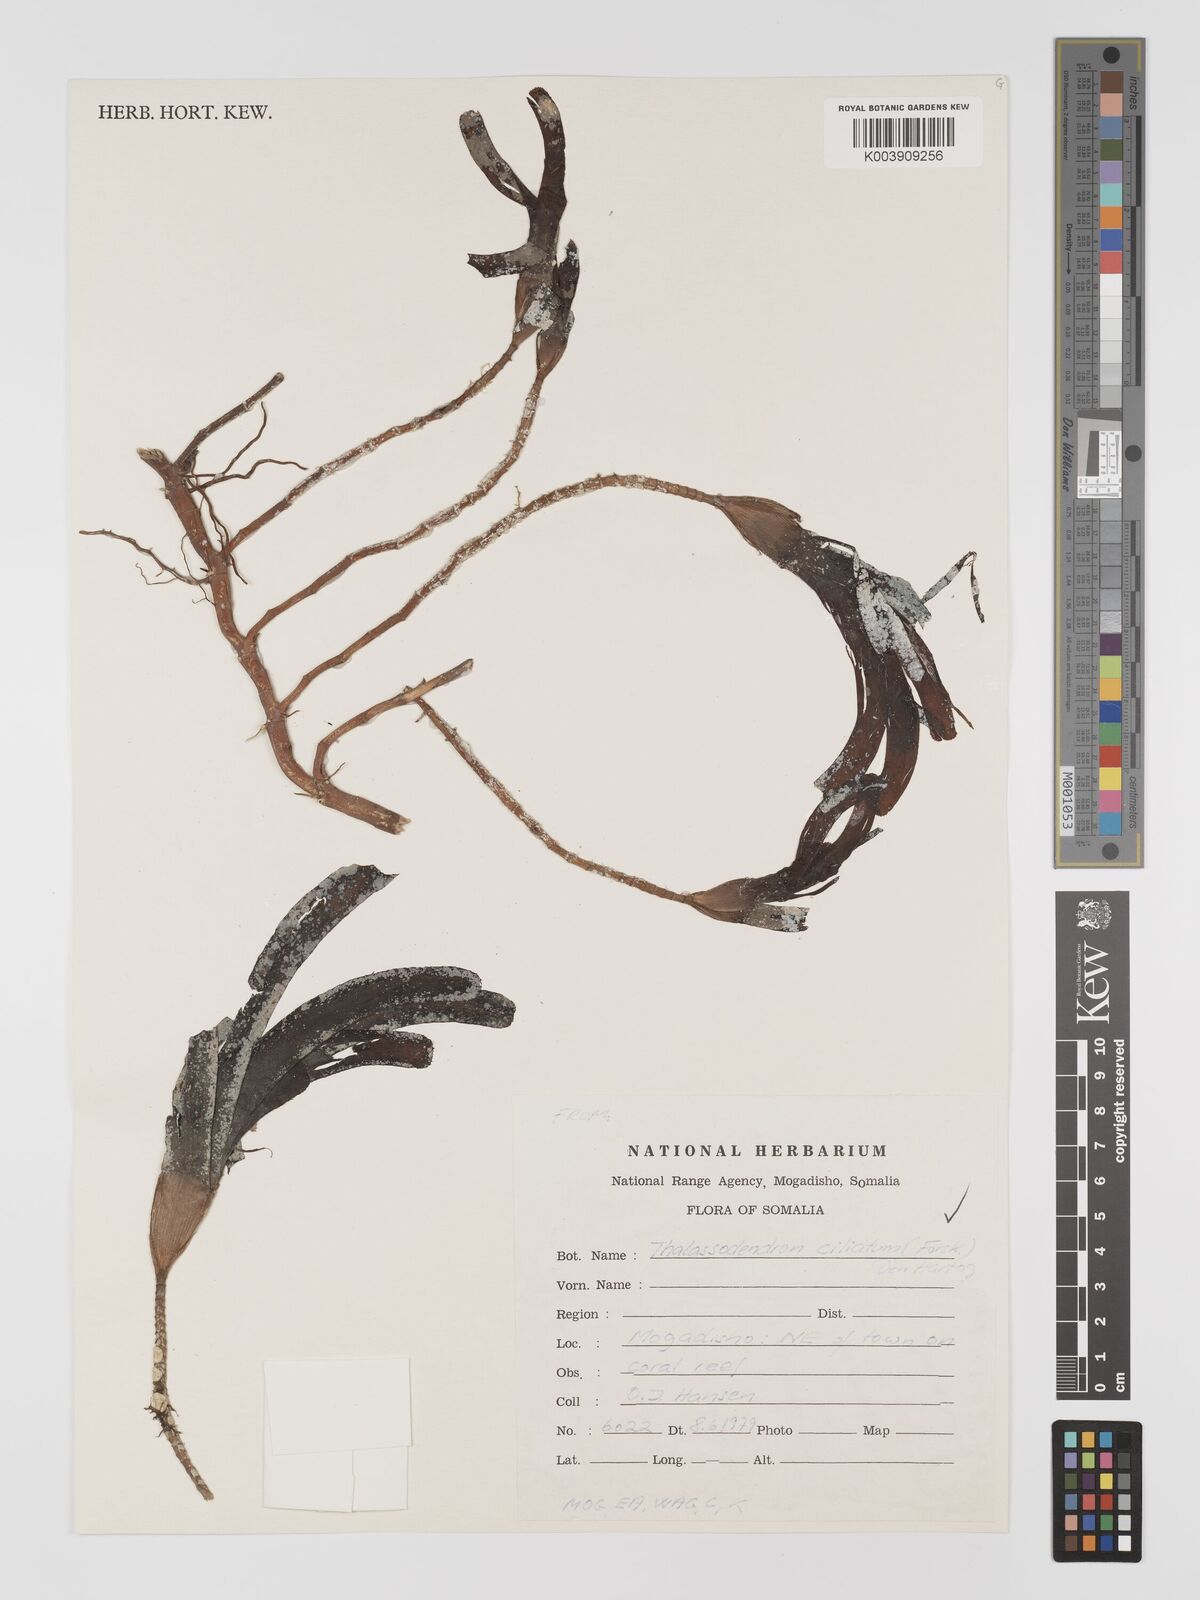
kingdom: Plantae
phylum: Tracheophyta
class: Liliopsida
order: Alismatales
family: Cymodoceaceae
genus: Thalassodendron
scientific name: Thalassodendron ciliatum
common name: Species code: tc
